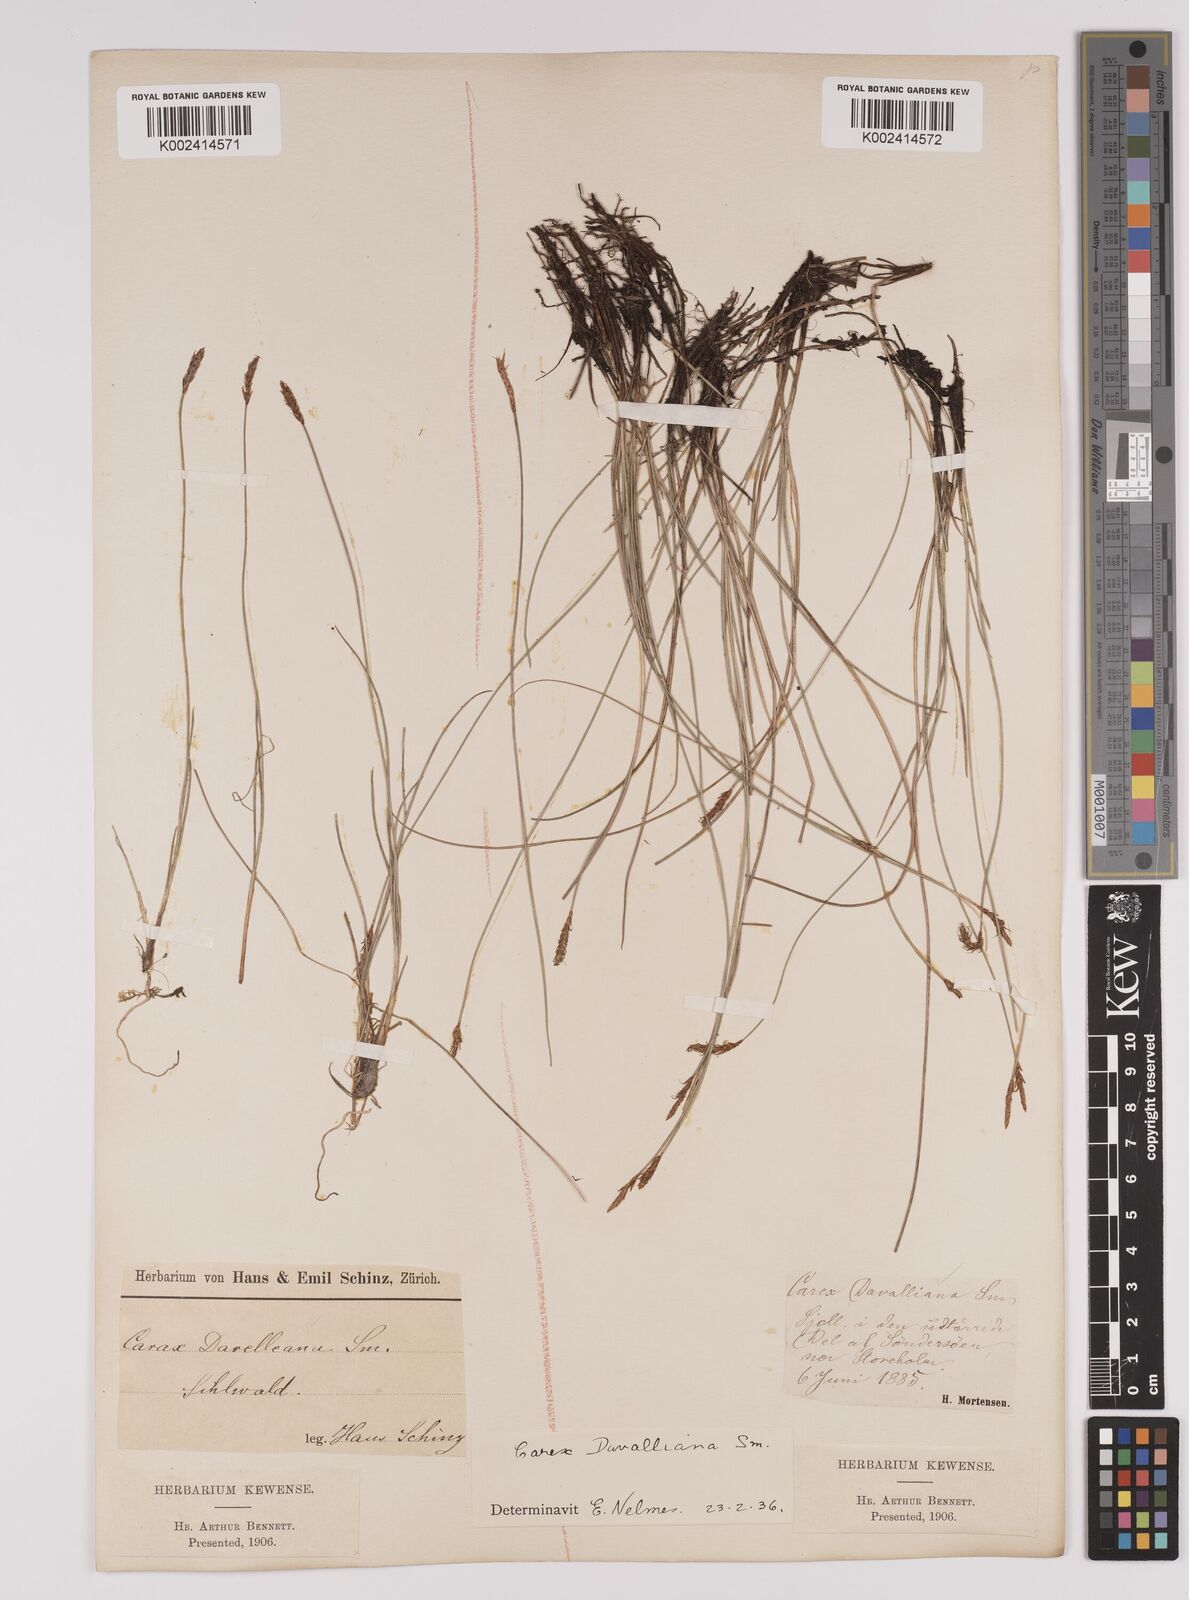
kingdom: Plantae
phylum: Tracheophyta
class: Liliopsida
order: Poales
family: Cyperaceae
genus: Carex
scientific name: Carex davalliana
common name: Davall's sedge
